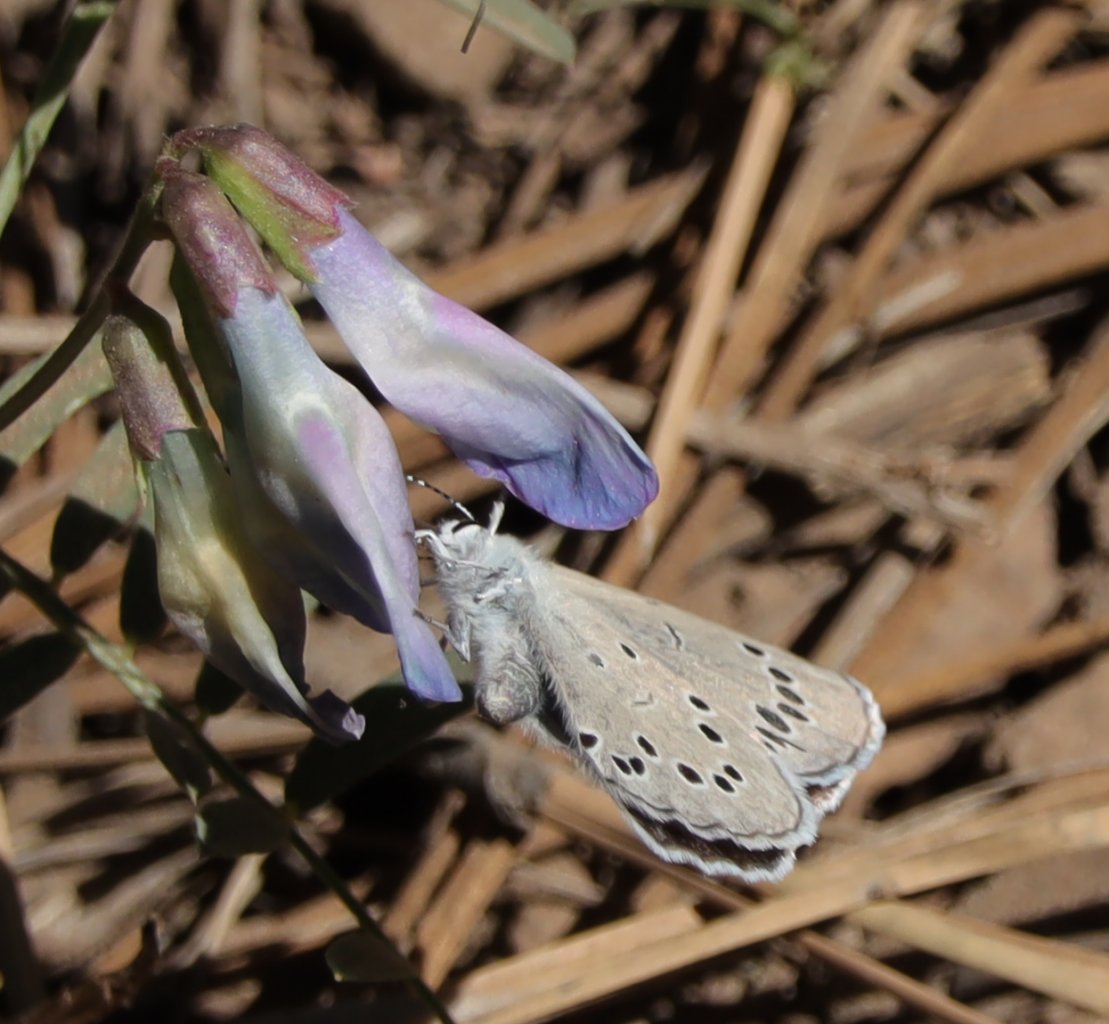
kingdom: Animalia
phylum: Arthropoda
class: Insecta
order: Lepidoptera
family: Lycaenidae
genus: Glaucopsyche
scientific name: Glaucopsyche lygdamus
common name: Silvery Blue
